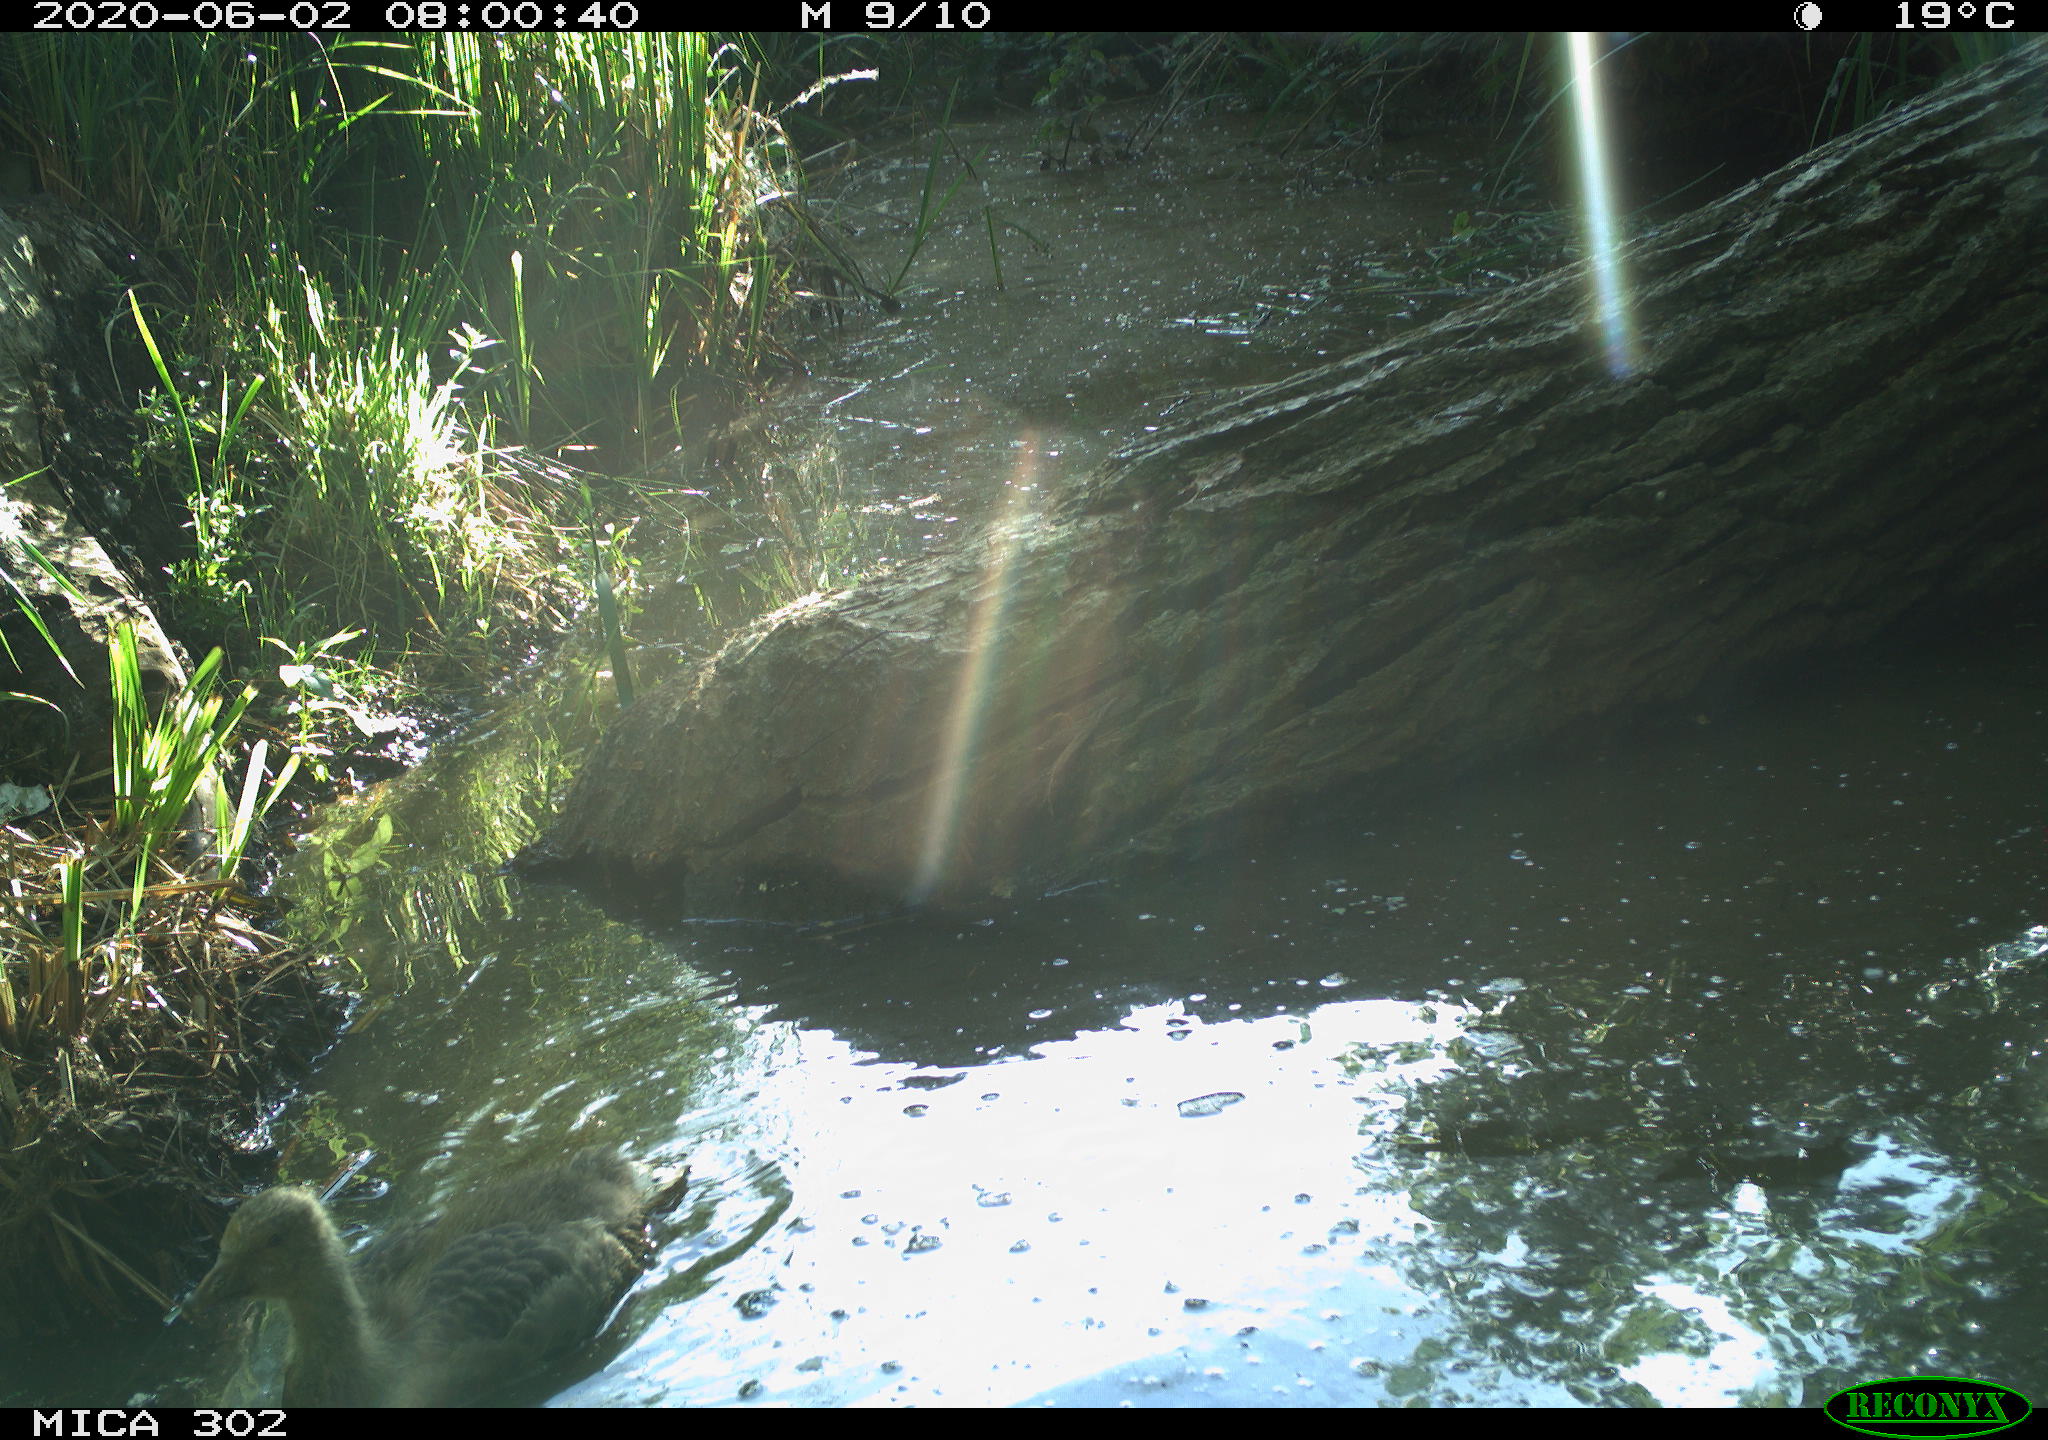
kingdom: Animalia
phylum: Chordata
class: Aves
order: Anseriformes
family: Anatidae
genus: Anser
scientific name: Anser anser
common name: Greylag goose
